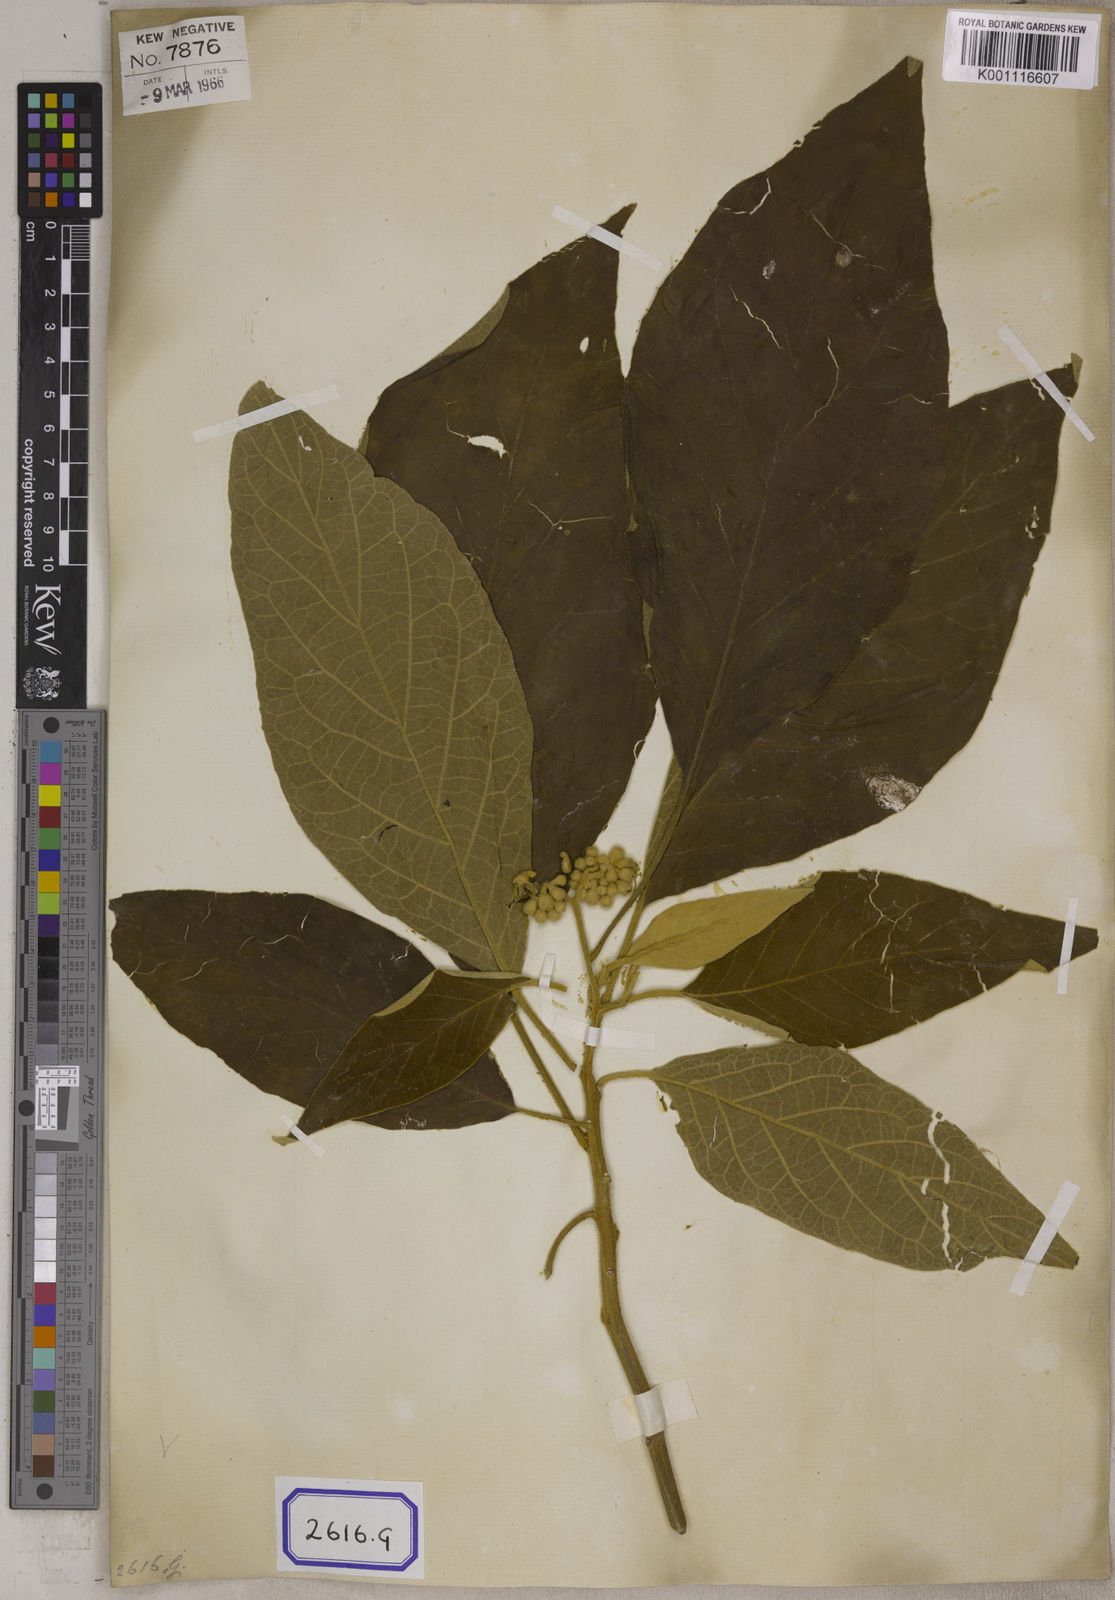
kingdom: Plantae
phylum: Tracheophyta
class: Magnoliopsida
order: Solanales
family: Solanaceae
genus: Solanum
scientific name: Solanum donianum
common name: Mullein nightshade
